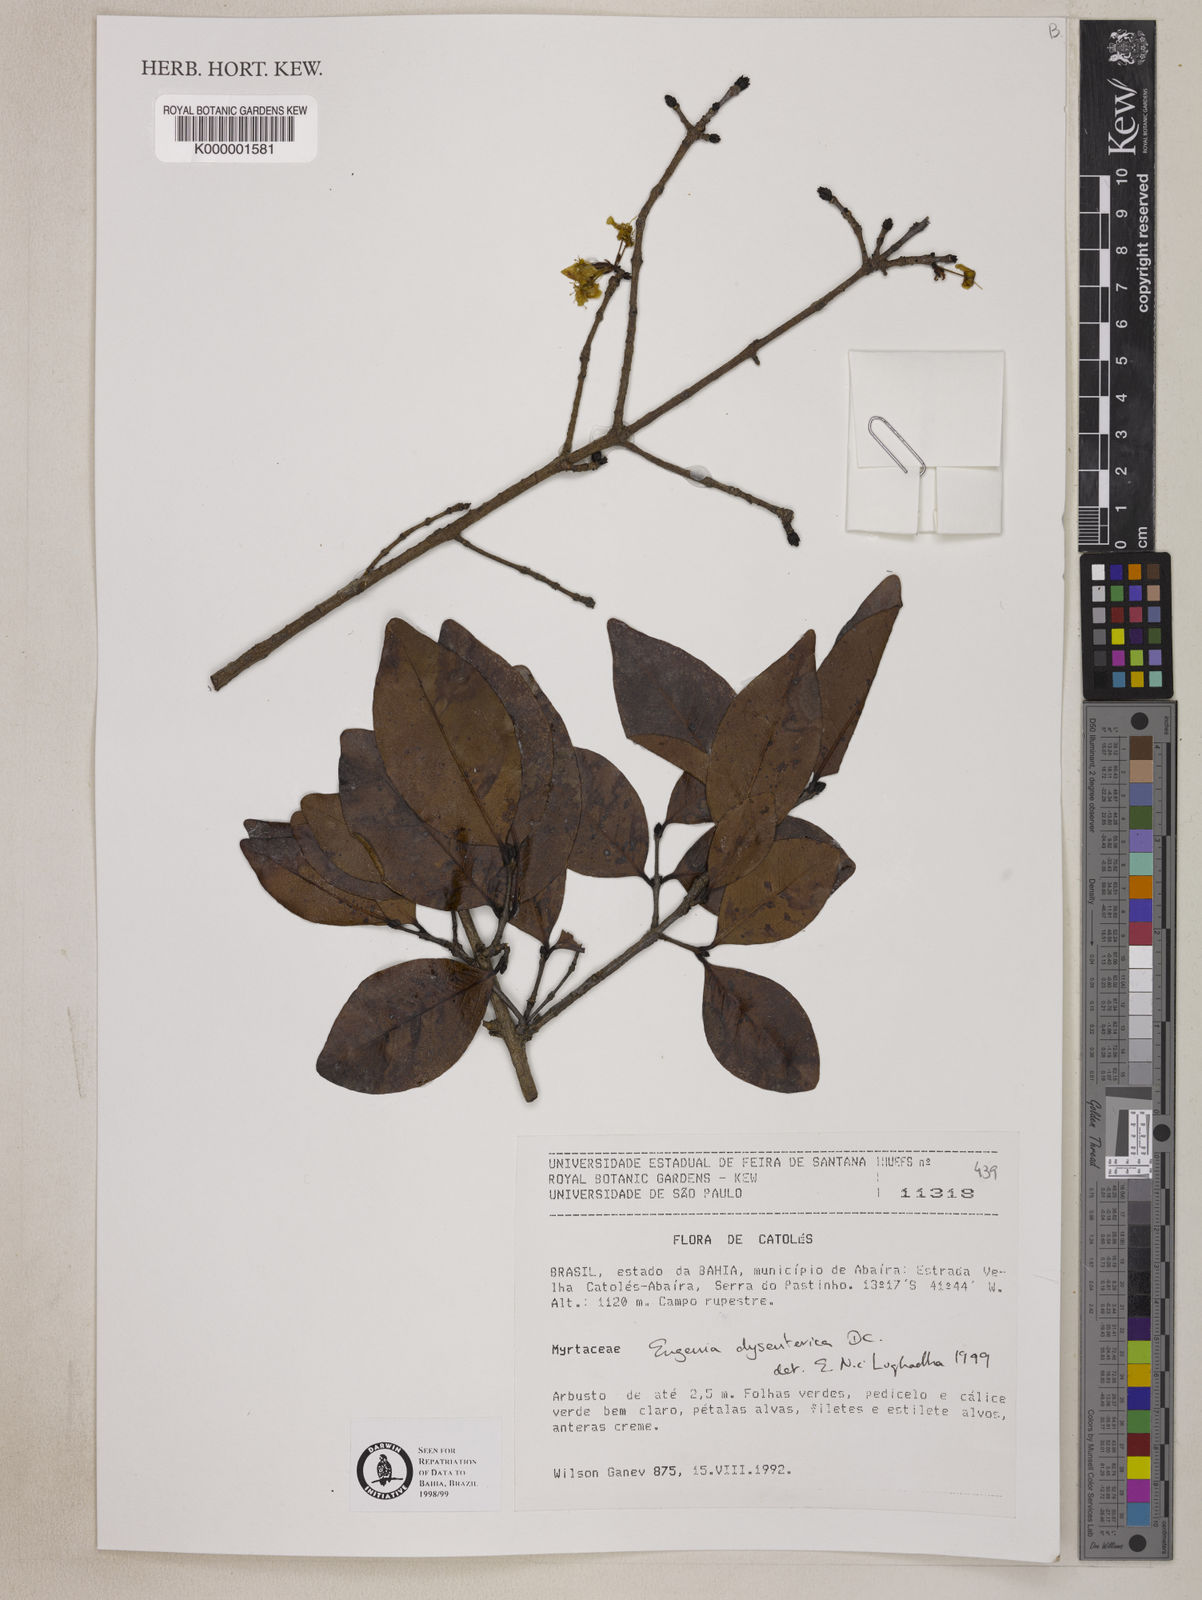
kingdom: Plantae
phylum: Tracheophyta
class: Magnoliopsida
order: Myrtales
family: Myrtaceae
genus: Eugenia
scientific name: Eugenia dysenterica
